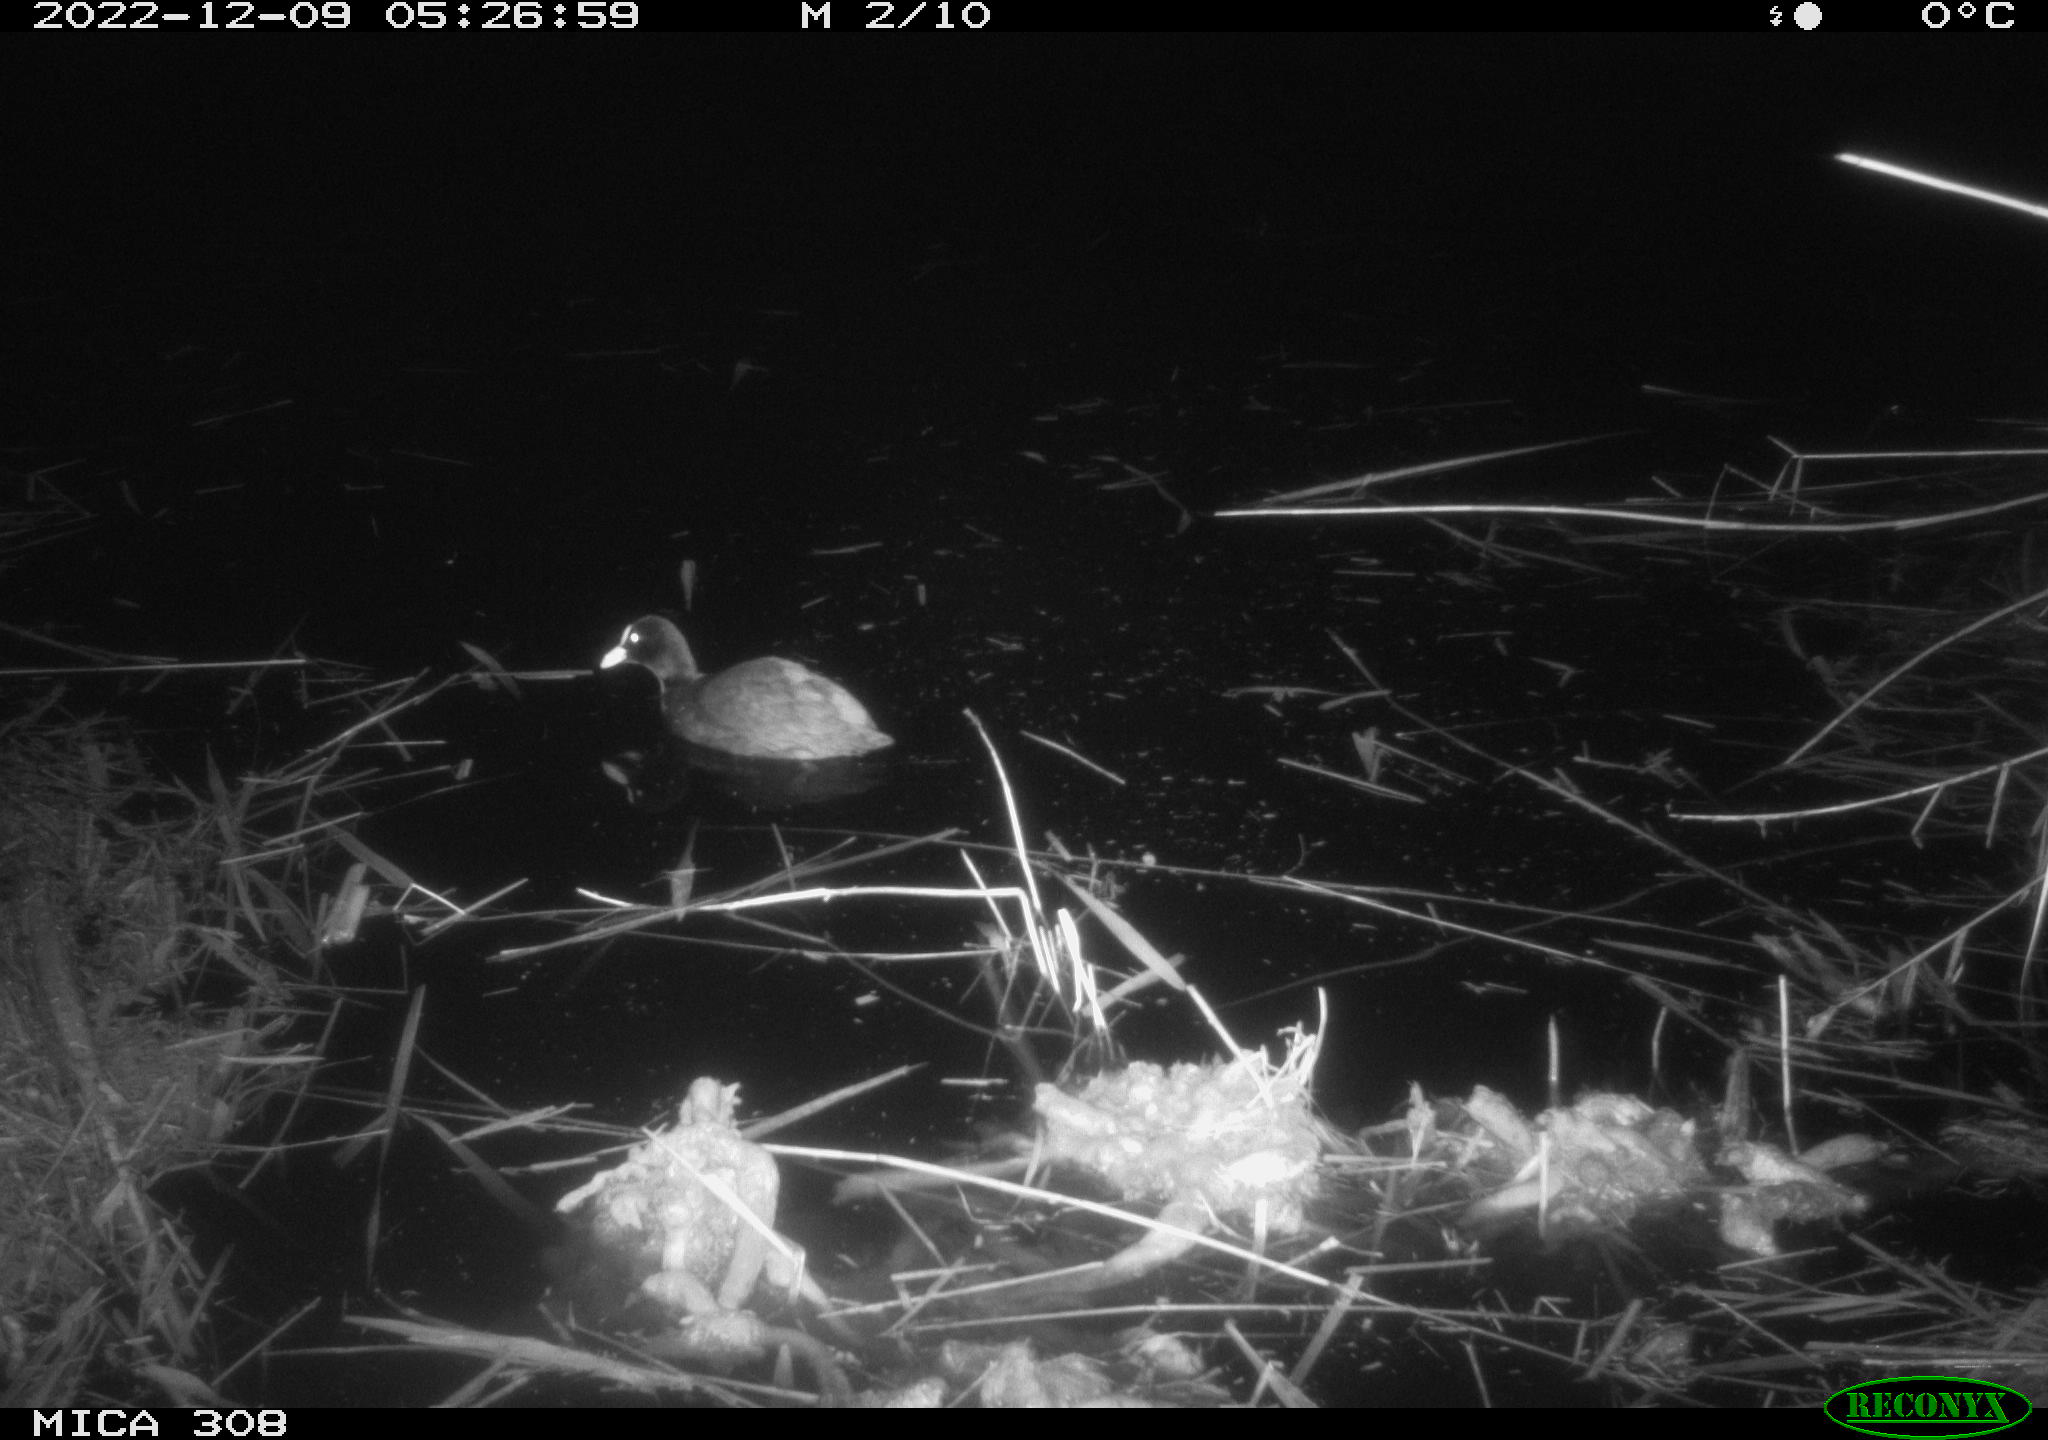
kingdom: Animalia
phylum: Chordata
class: Aves
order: Gruiformes
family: Rallidae
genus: Fulica
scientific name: Fulica atra
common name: Eurasian coot
